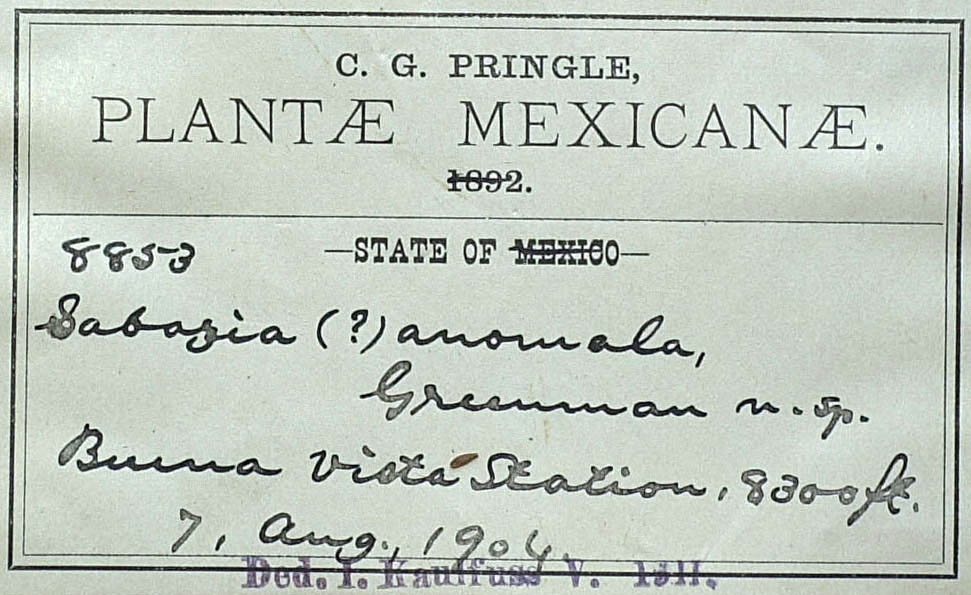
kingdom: Plantae
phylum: Tracheophyta
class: Magnoliopsida
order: Asterales
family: Asteraceae
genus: Sabazia
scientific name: Sabazia humilis
